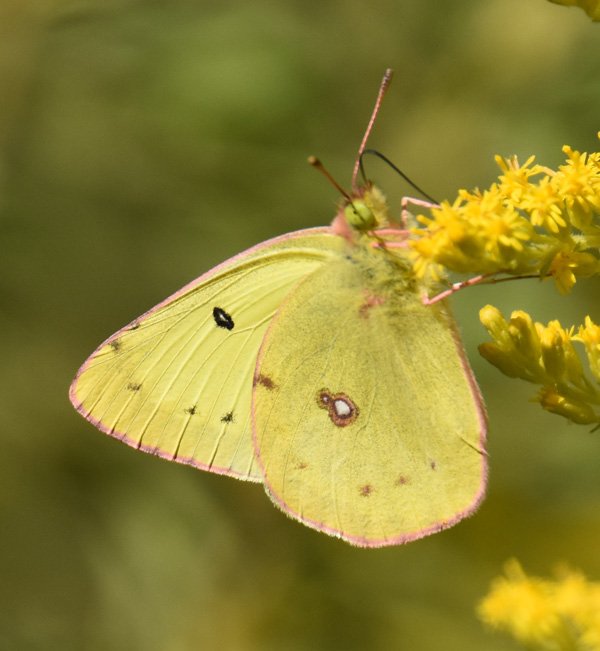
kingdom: Animalia
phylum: Arthropoda
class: Insecta
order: Lepidoptera
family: Pieridae
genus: Colias
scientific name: Colias philodice
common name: Clouded Sulphur
